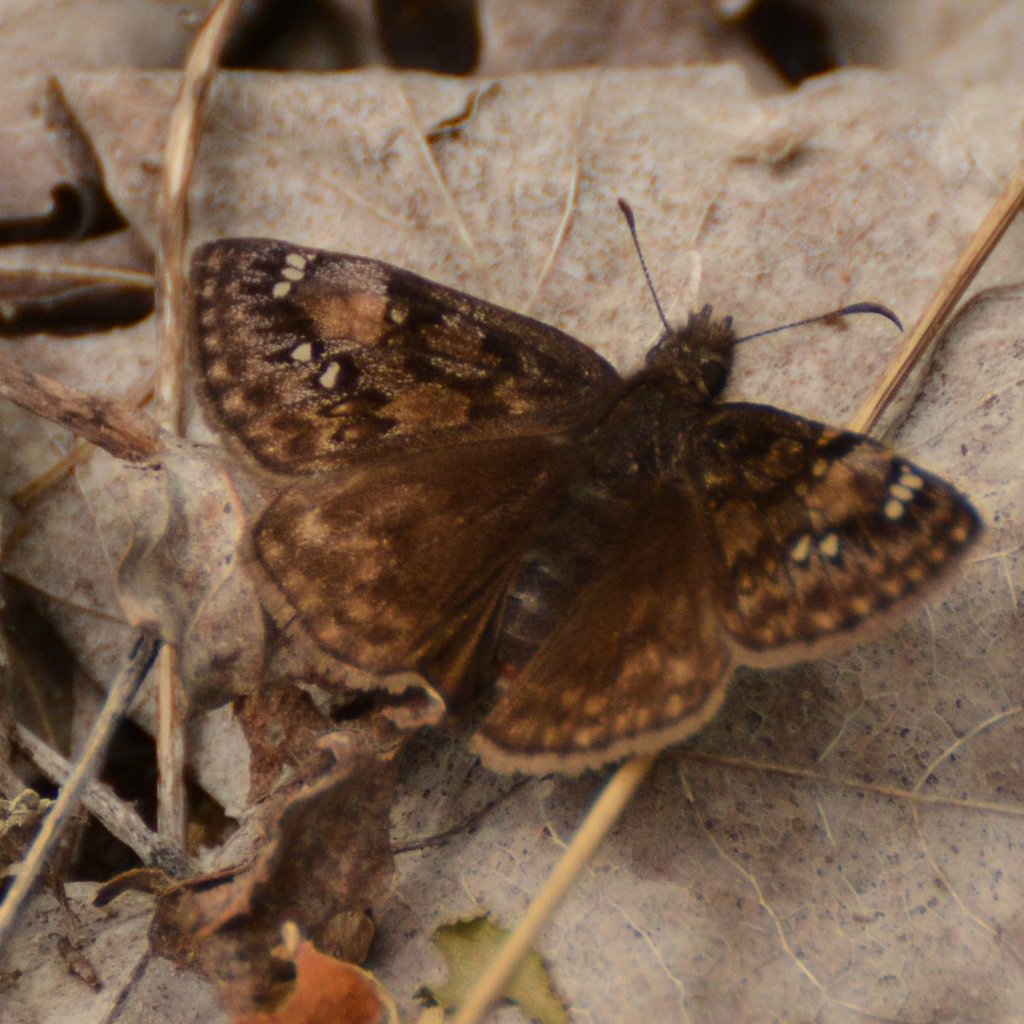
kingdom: Animalia
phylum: Arthropoda
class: Insecta
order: Lepidoptera
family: Hesperiidae
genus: Gesta
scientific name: Gesta
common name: Juvenal's Duskywing
